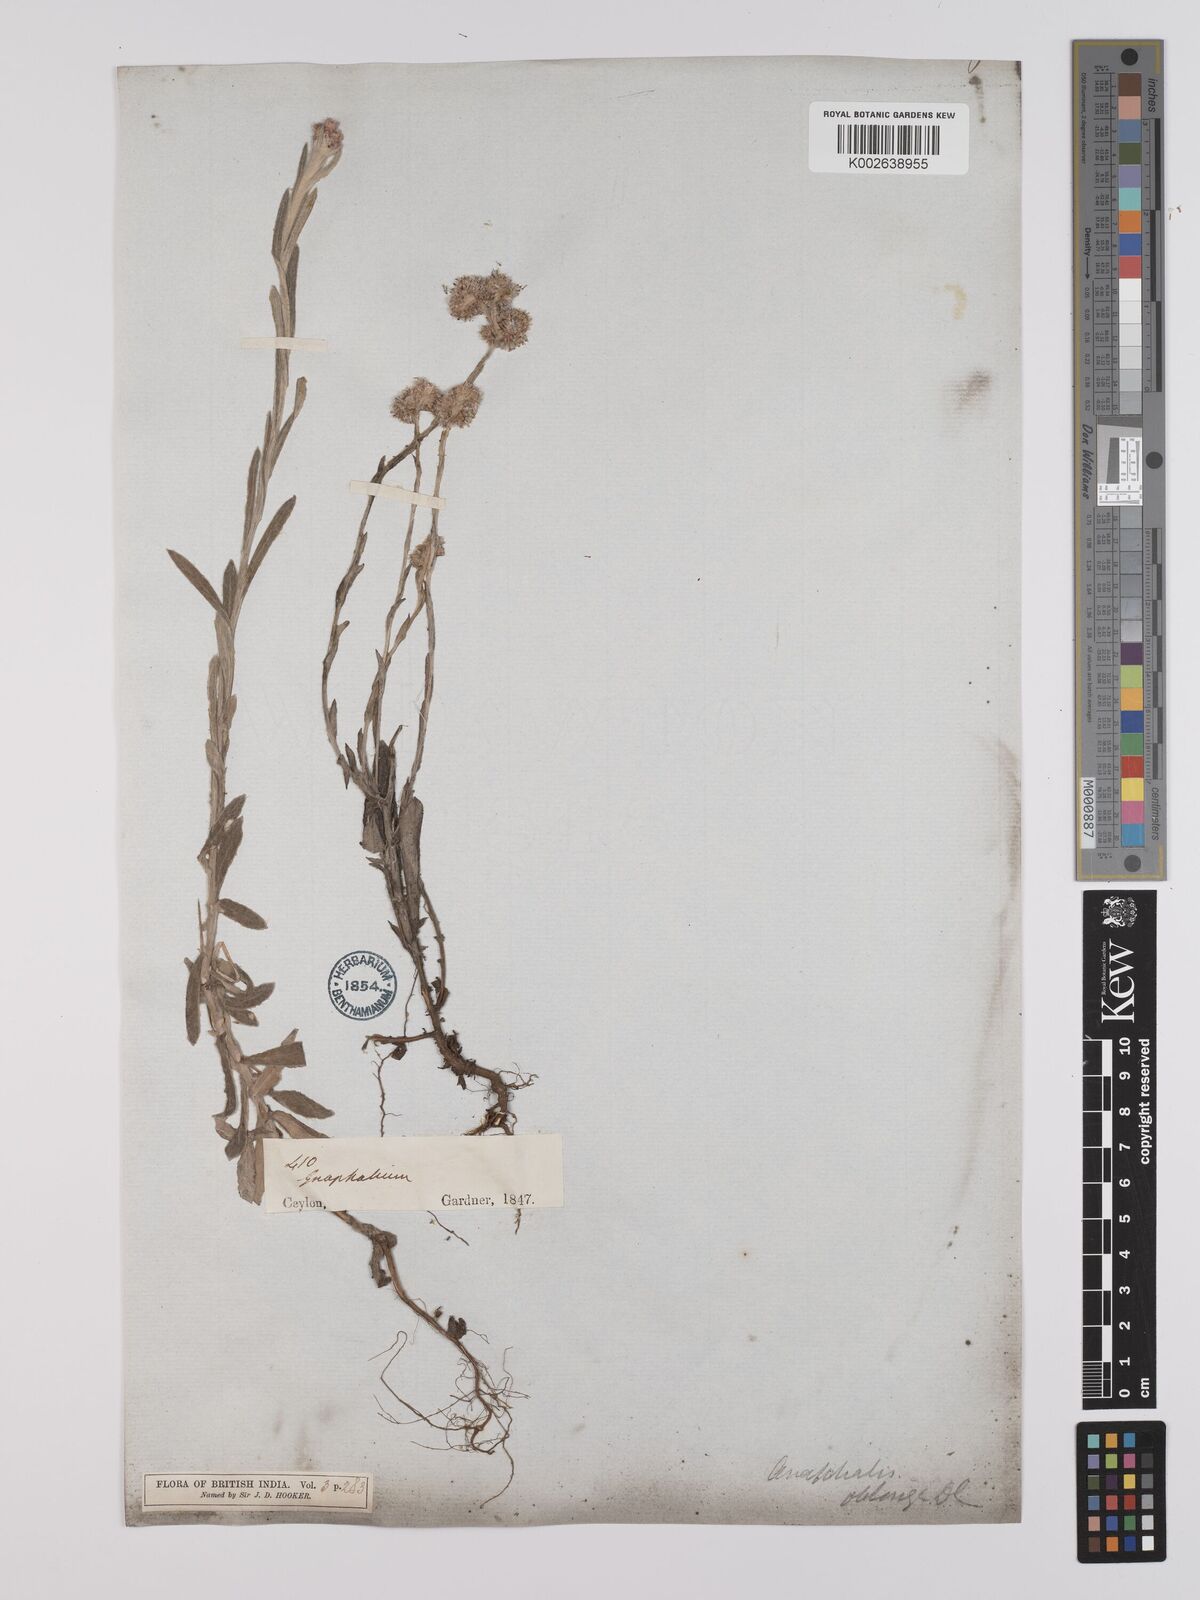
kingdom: Plantae
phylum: Tracheophyta
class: Magnoliopsida
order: Asterales
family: Asteraceae
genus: Anaphalis
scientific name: Anaphalis subdecurrens
